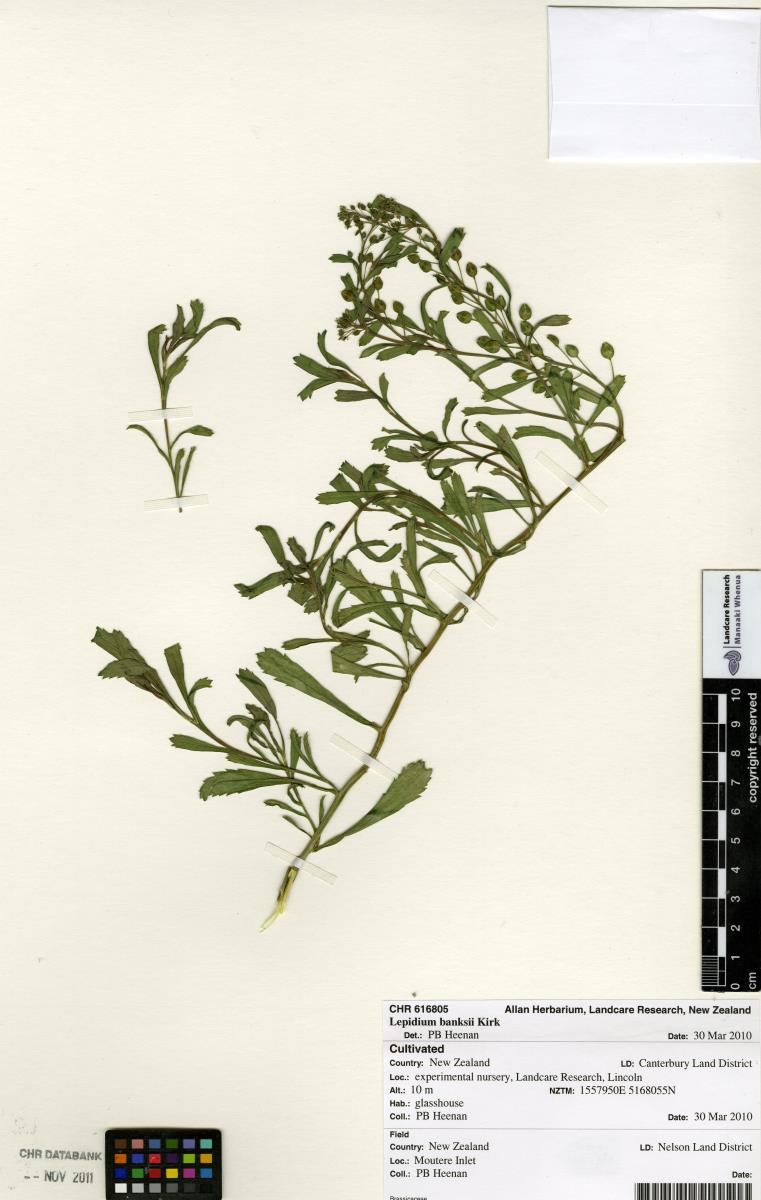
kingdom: Plantae
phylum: Tracheophyta
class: Magnoliopsida
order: Brassicales
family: Brassicaceae
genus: Lepidium
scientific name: Lepidium banksii
